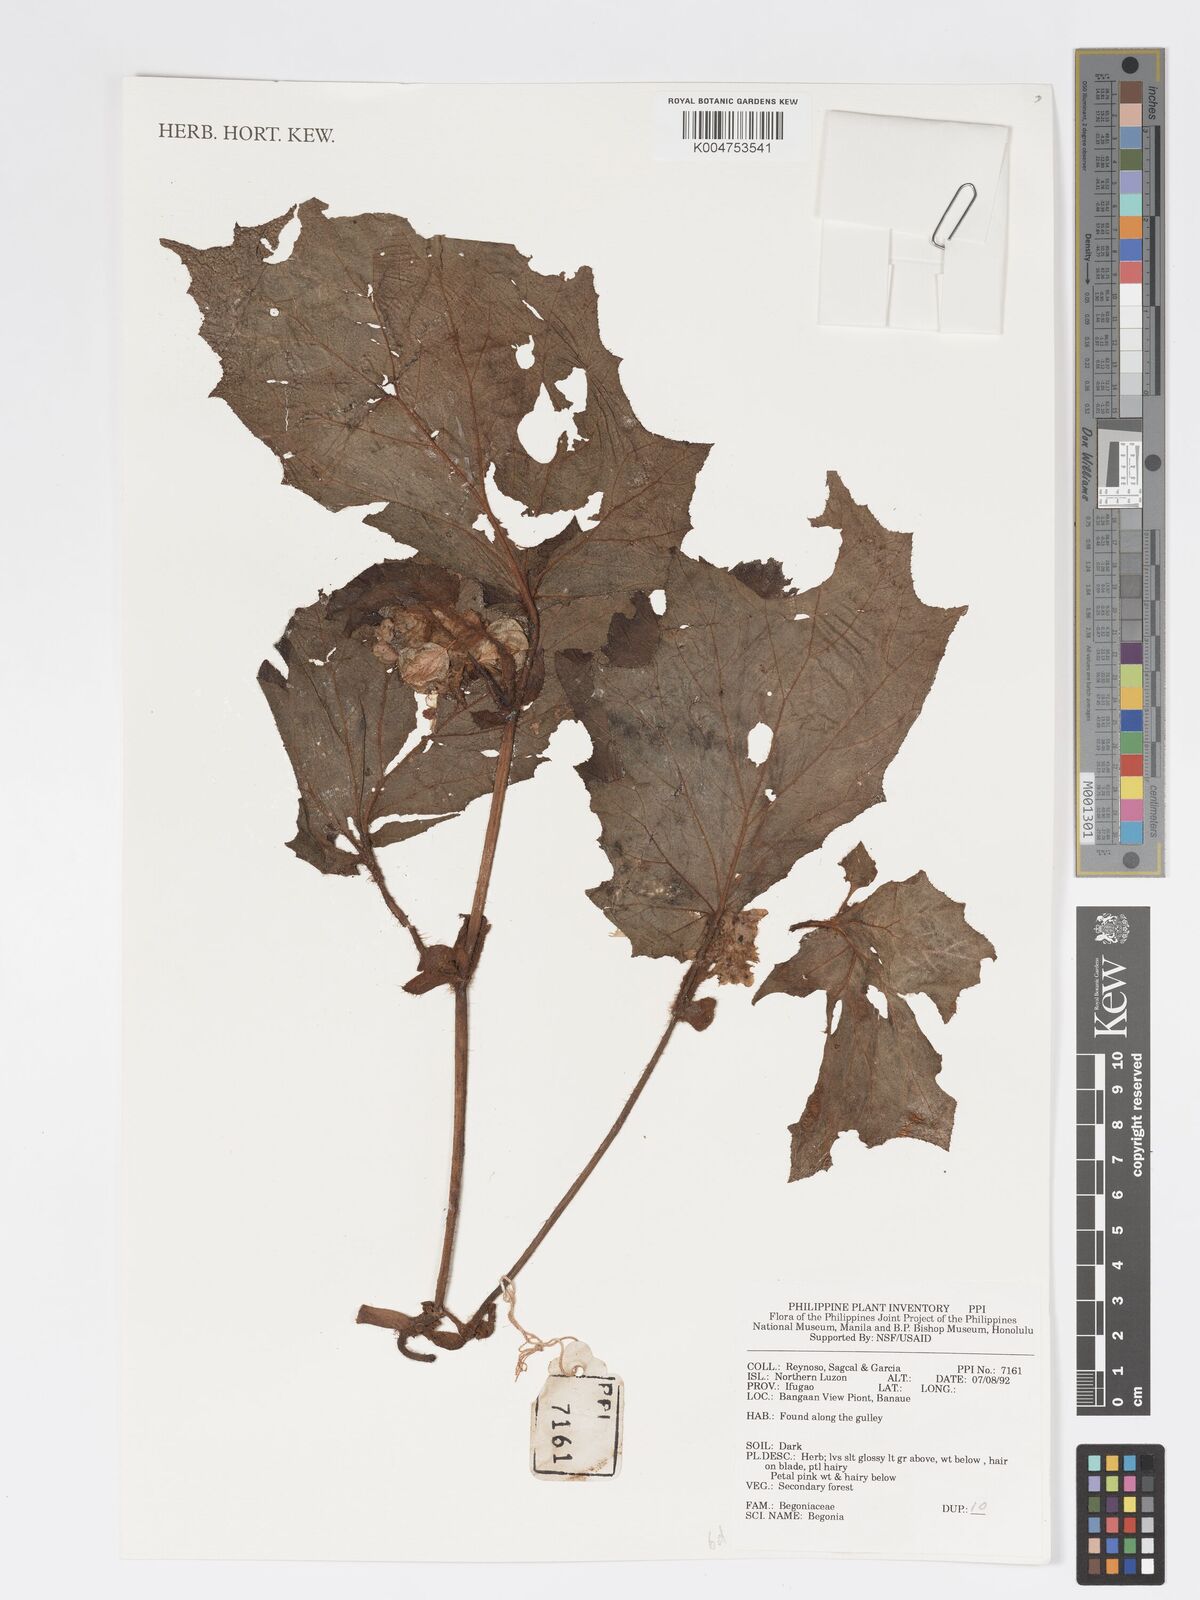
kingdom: Plantae
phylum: Tracheophyta
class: Magnoliopsida
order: Cucurbitales
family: Begoniaceae
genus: Begonia
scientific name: Begonia
